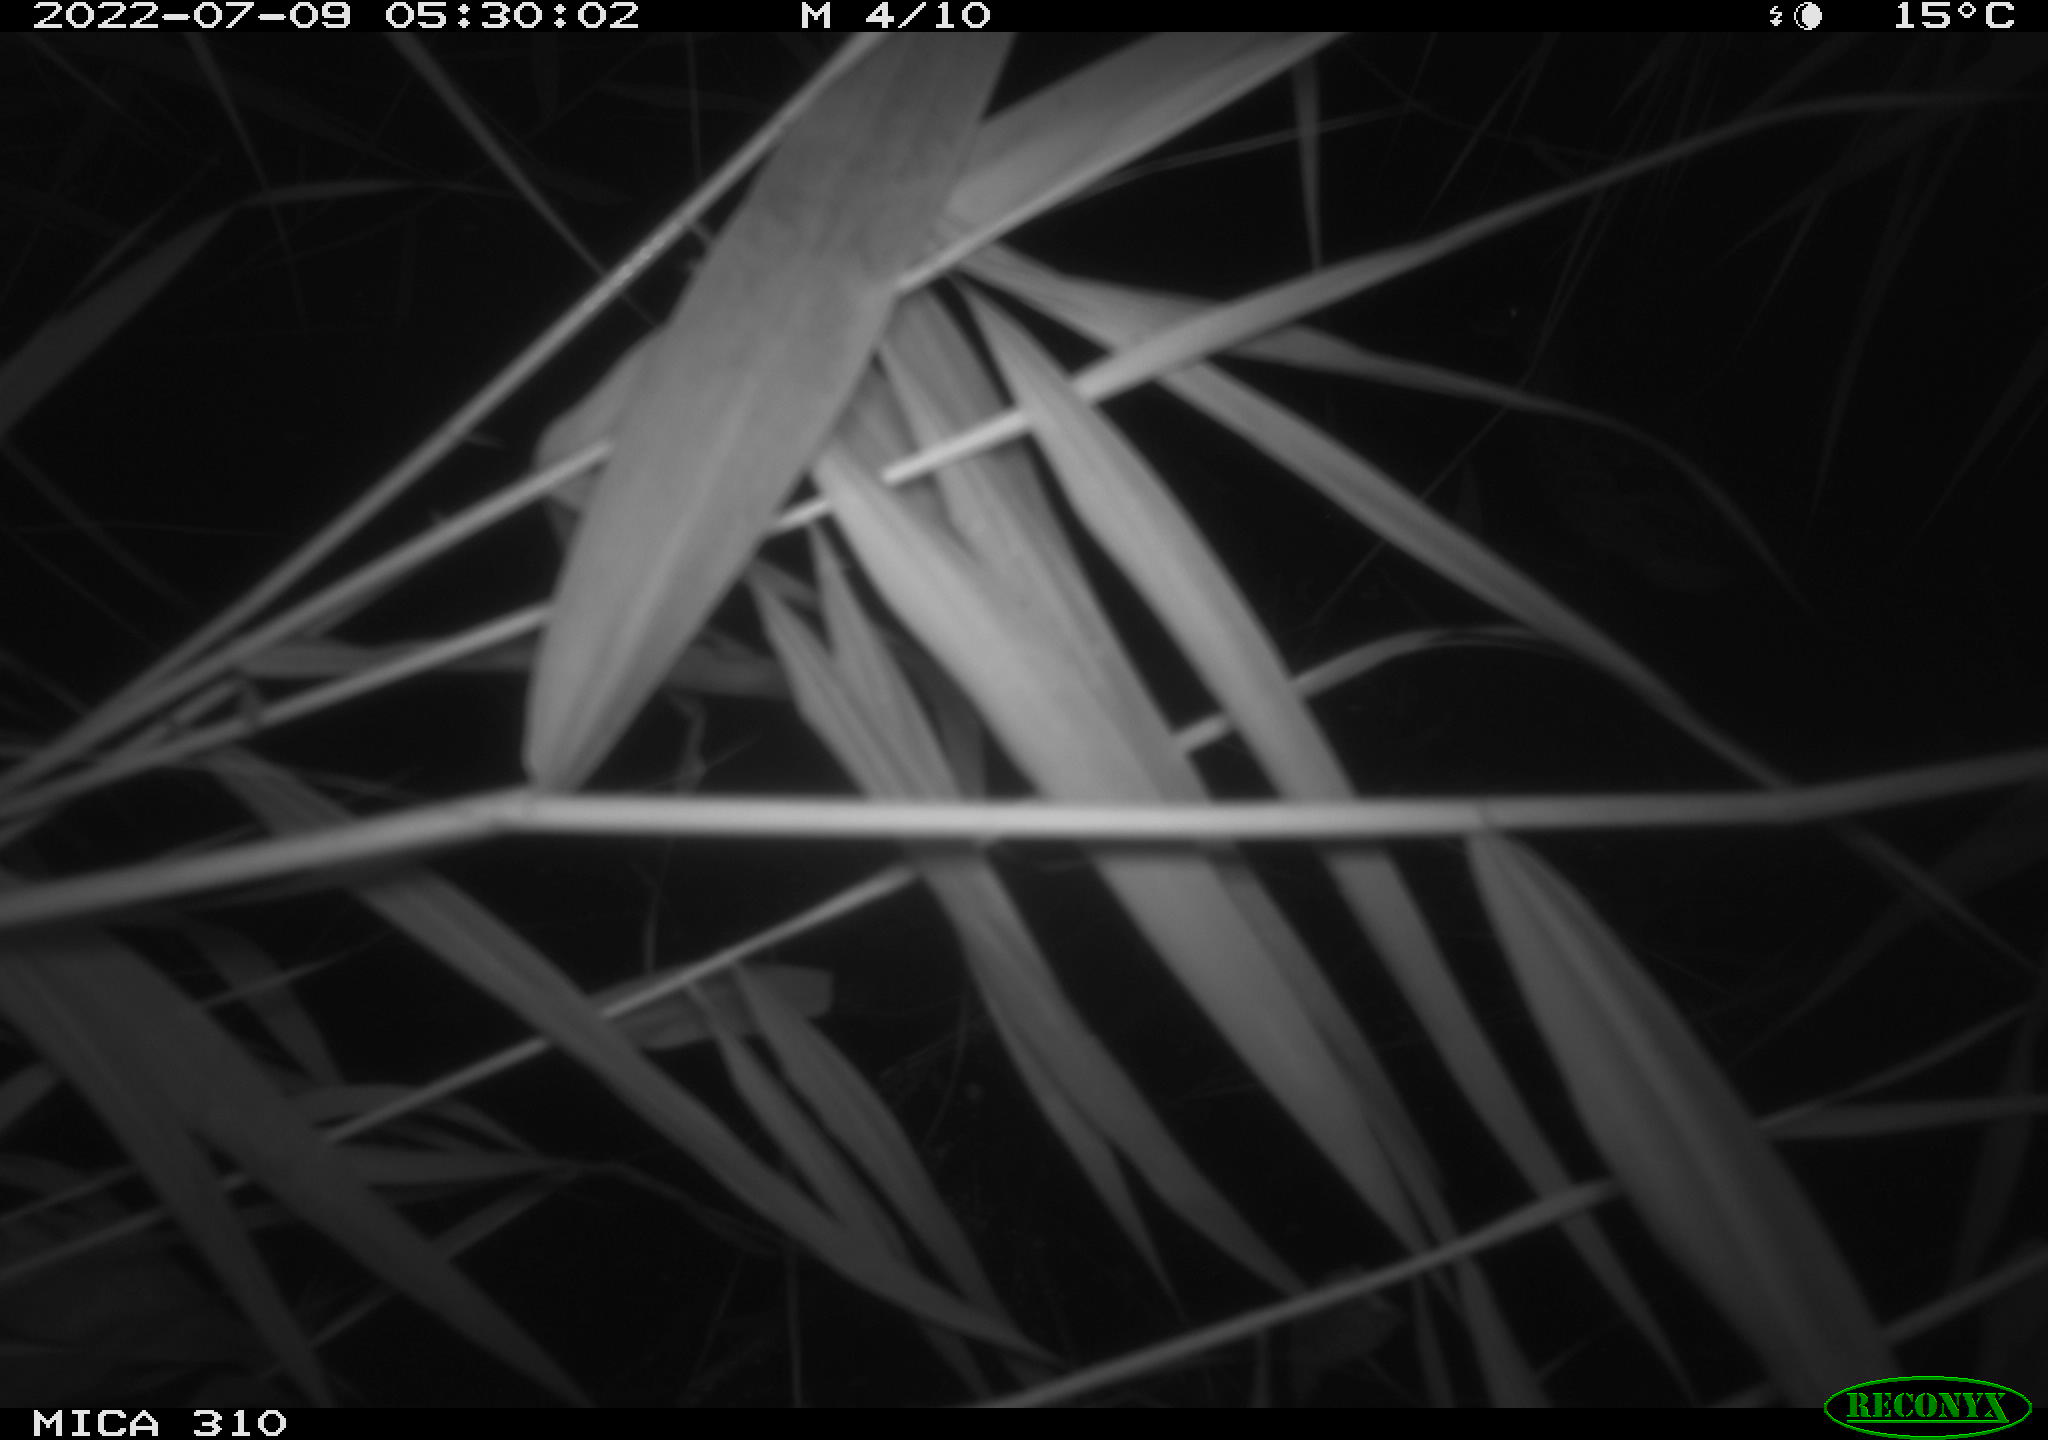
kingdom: Animalia
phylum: Chordata
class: Aves
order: Anseriformes
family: Anatidae
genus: Anas
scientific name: Anas platyrhynchos
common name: Mallard
